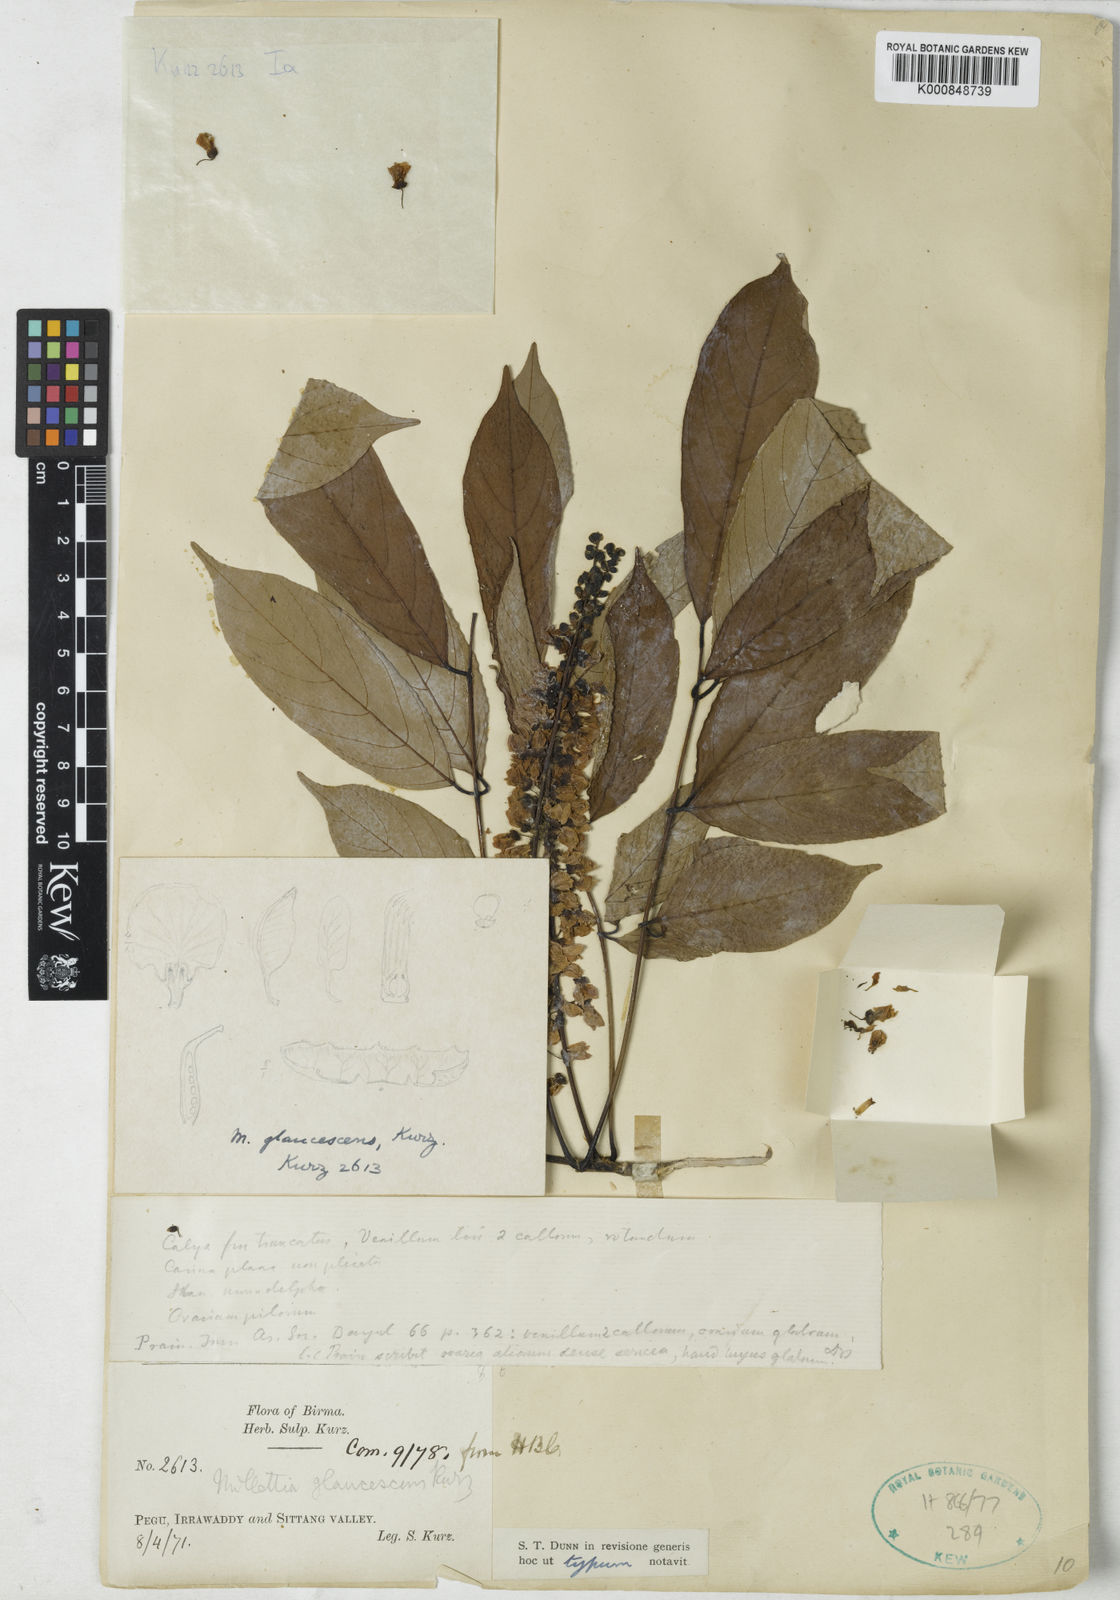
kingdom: Plantae
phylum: Tracheophyta
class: Magnoliopsida
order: Fabales
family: Fabaceae
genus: Millettia
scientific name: Millettia glaucescens
